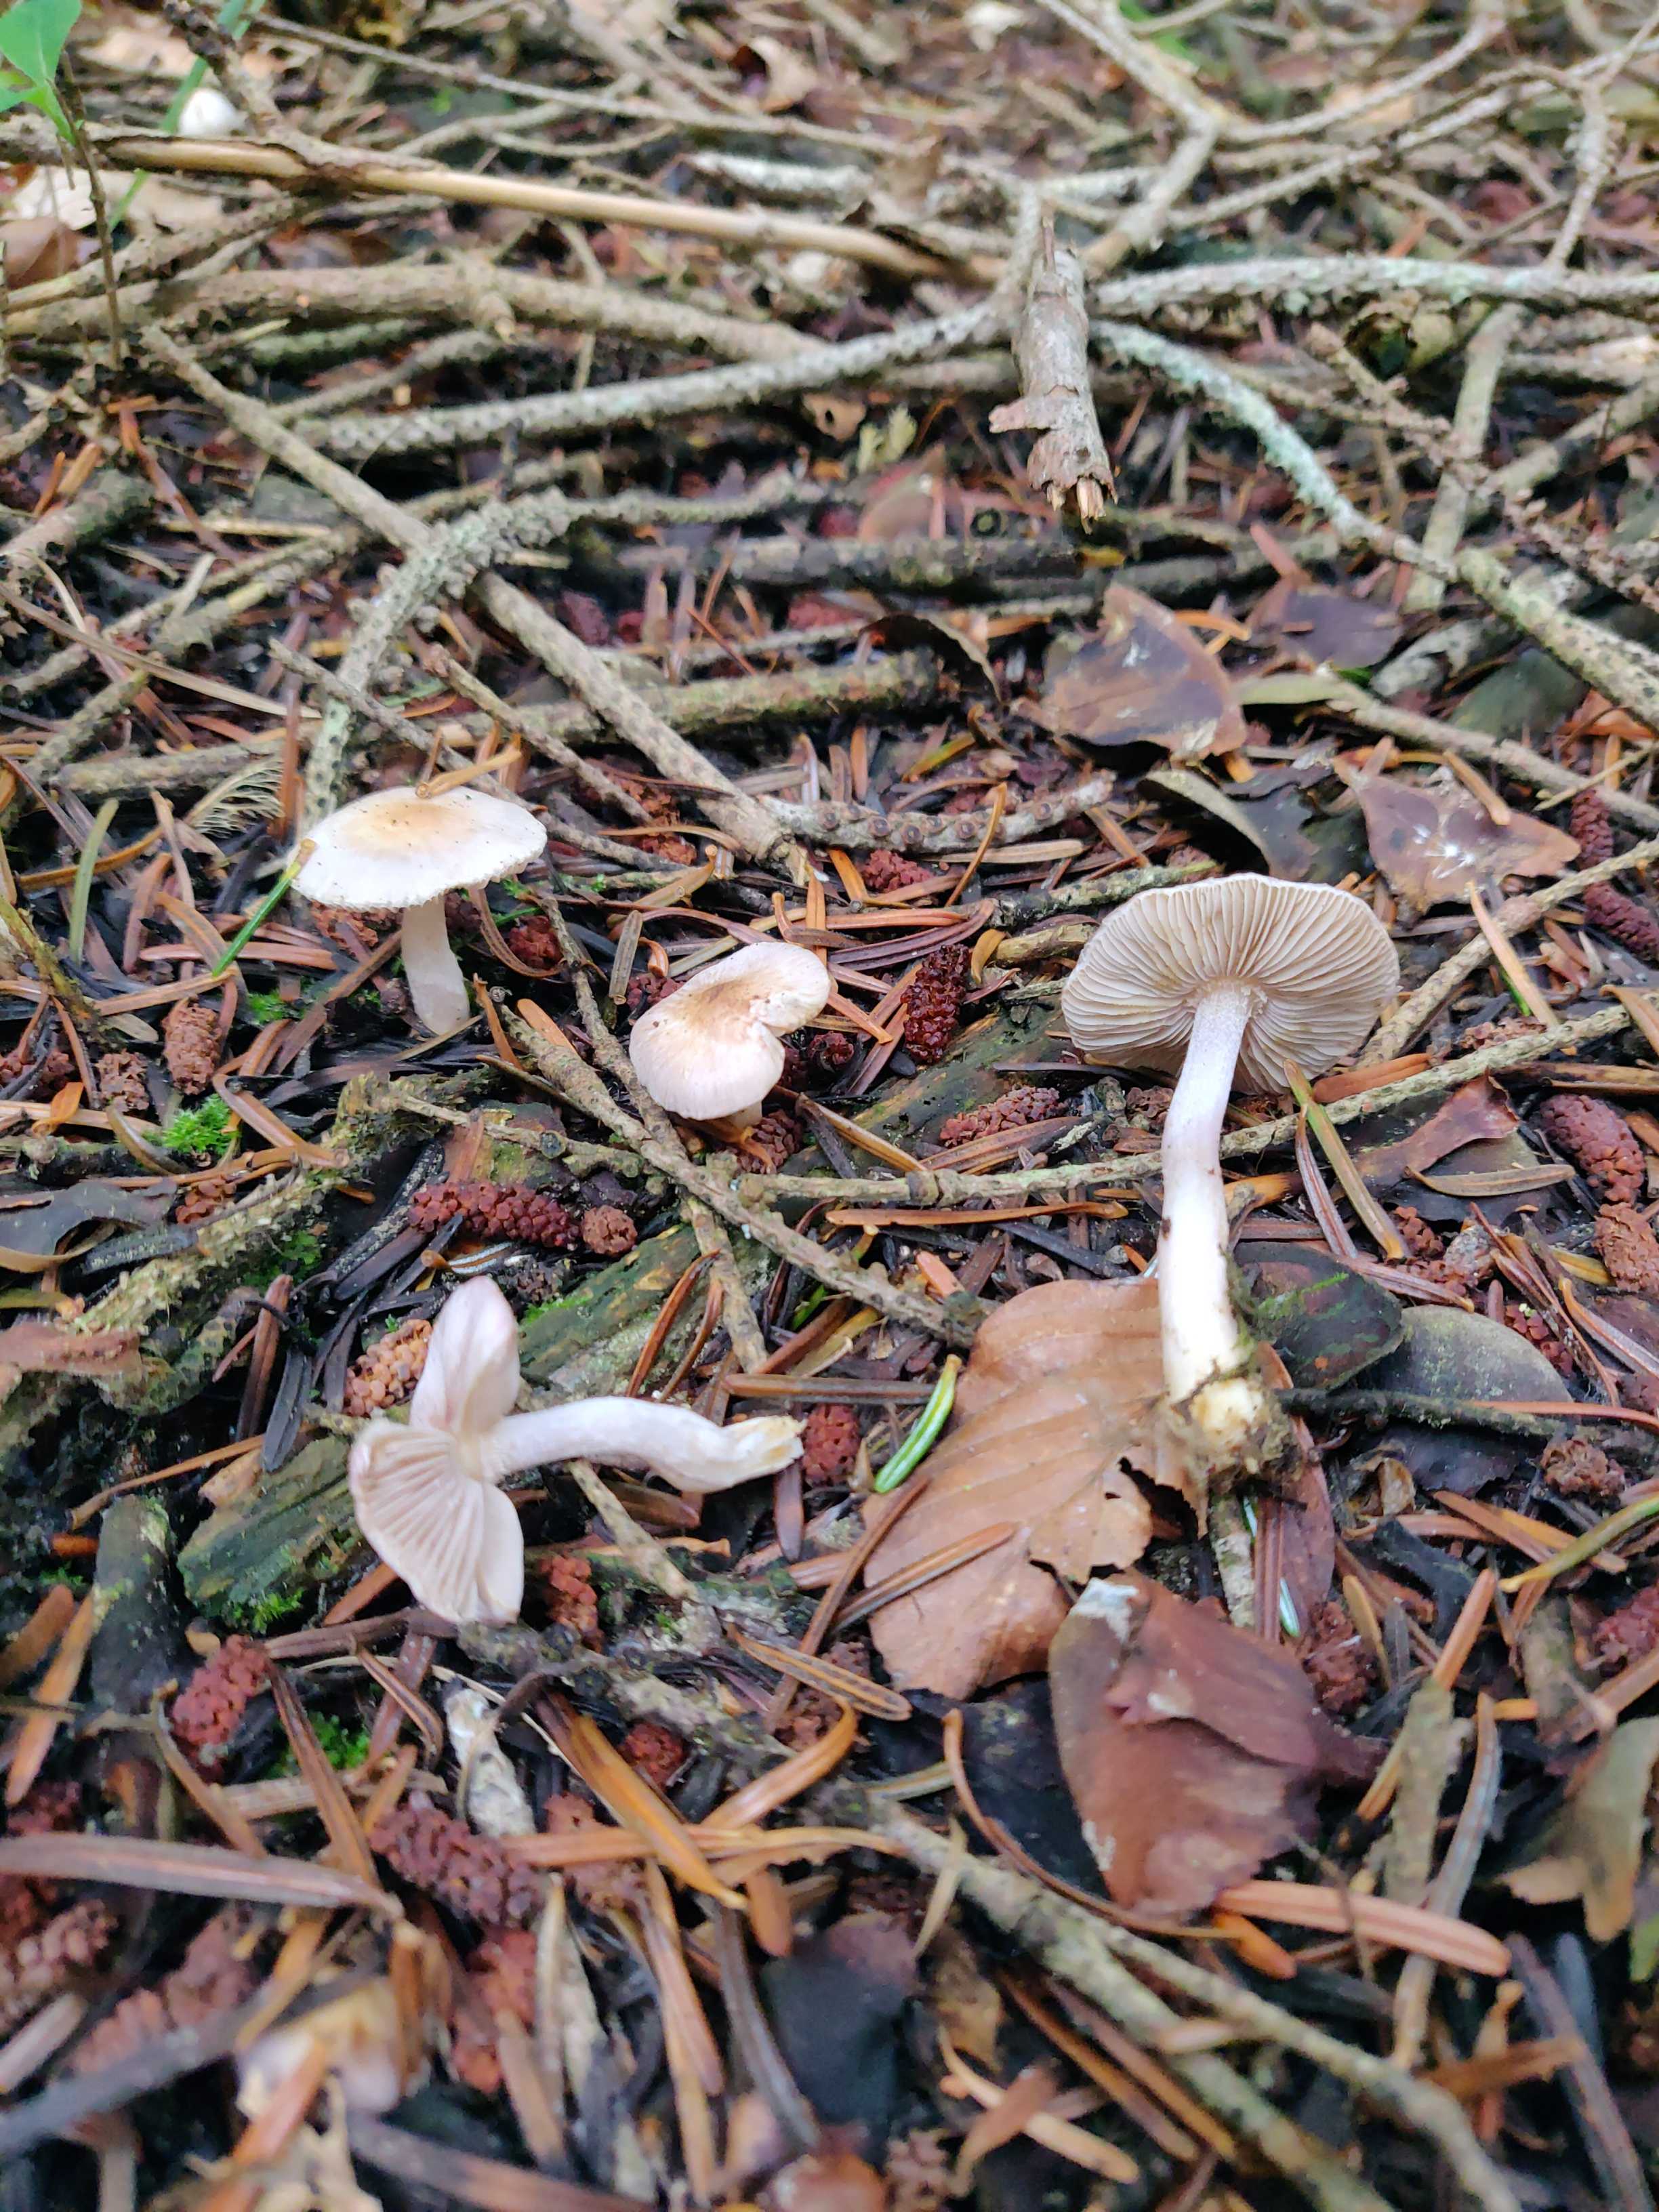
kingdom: Fungi
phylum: Basidiomycota
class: Agaricomycetes
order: Agaricales
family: Inocybaceae
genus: Inocybe
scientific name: Inocybe geophylla
